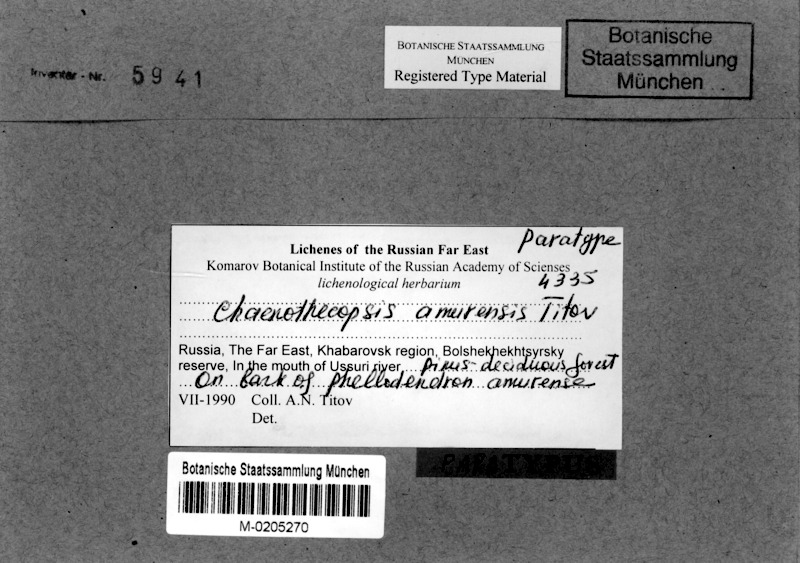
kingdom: Fungi
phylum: Ascomycota
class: Eurotiomycetes
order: Mycocaliciales
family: Mycocaliciaceae
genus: Chaenothecopsis
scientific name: Chaenothecopsis amurensis
